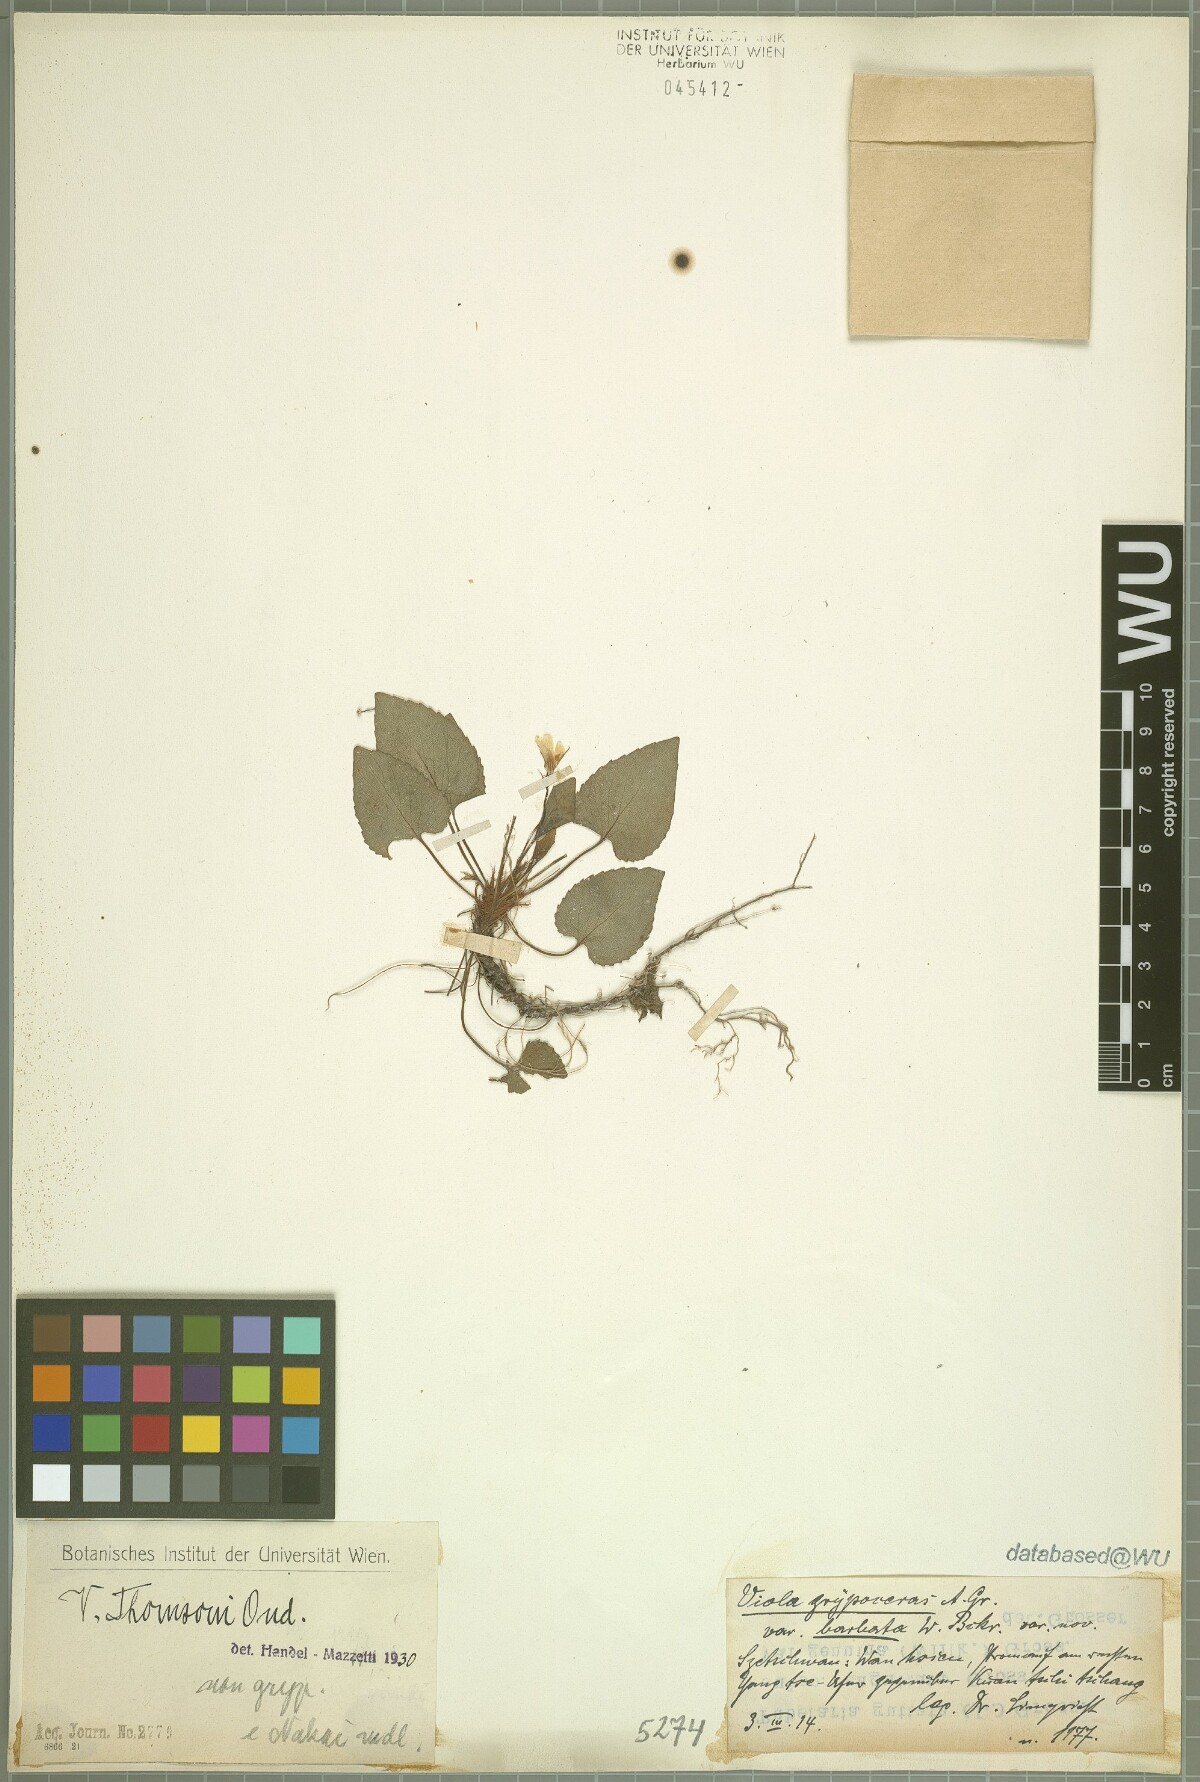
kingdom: Plantae
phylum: Tracheophyta
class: Magnoliopsida
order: Malpighiales
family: Violaceae
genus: Viola
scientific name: Viola thomsonii
